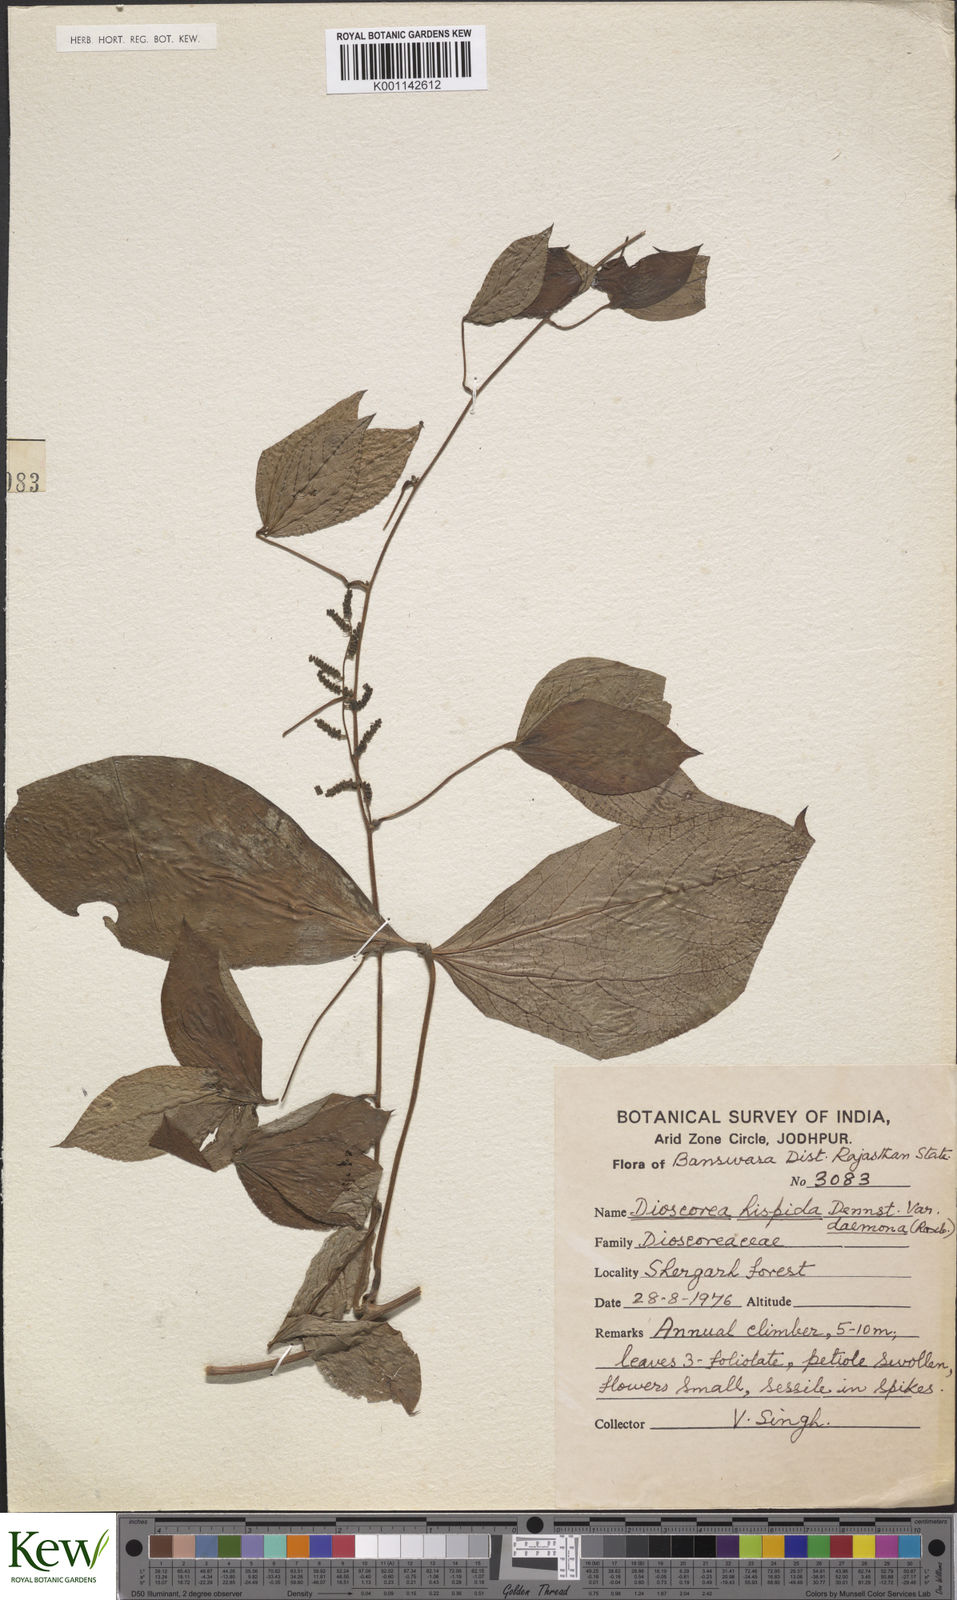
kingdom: Plantae
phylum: Tracheophyta
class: Liliopsida
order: Dioscoreales
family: Dioscoreaceae
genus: Dioscorea
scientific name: Dioscorea hispida
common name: Asiatic bitter yam
